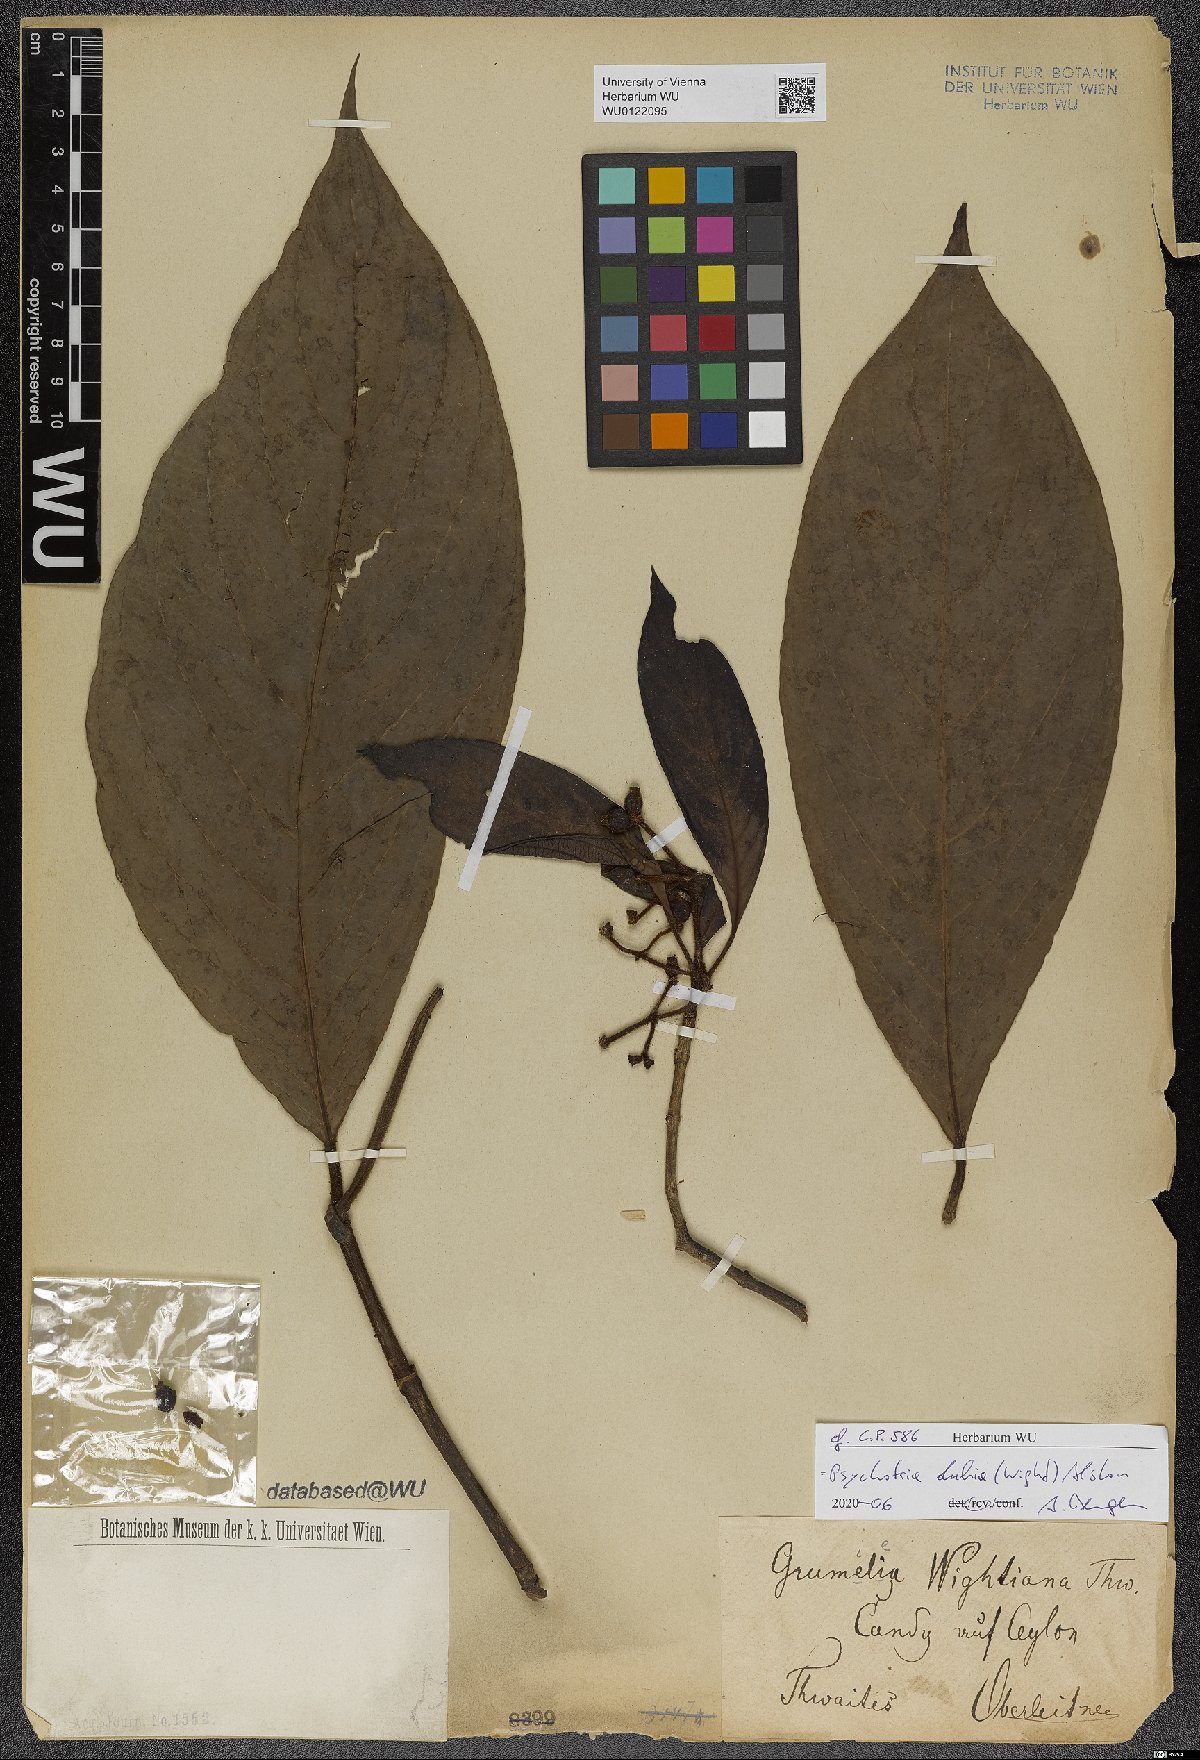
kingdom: Plantae
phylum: Tracheophyta
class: Magnoliopsida
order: Gentianales
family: Rubiaceae
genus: Psychotria
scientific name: Psychotria dubia
